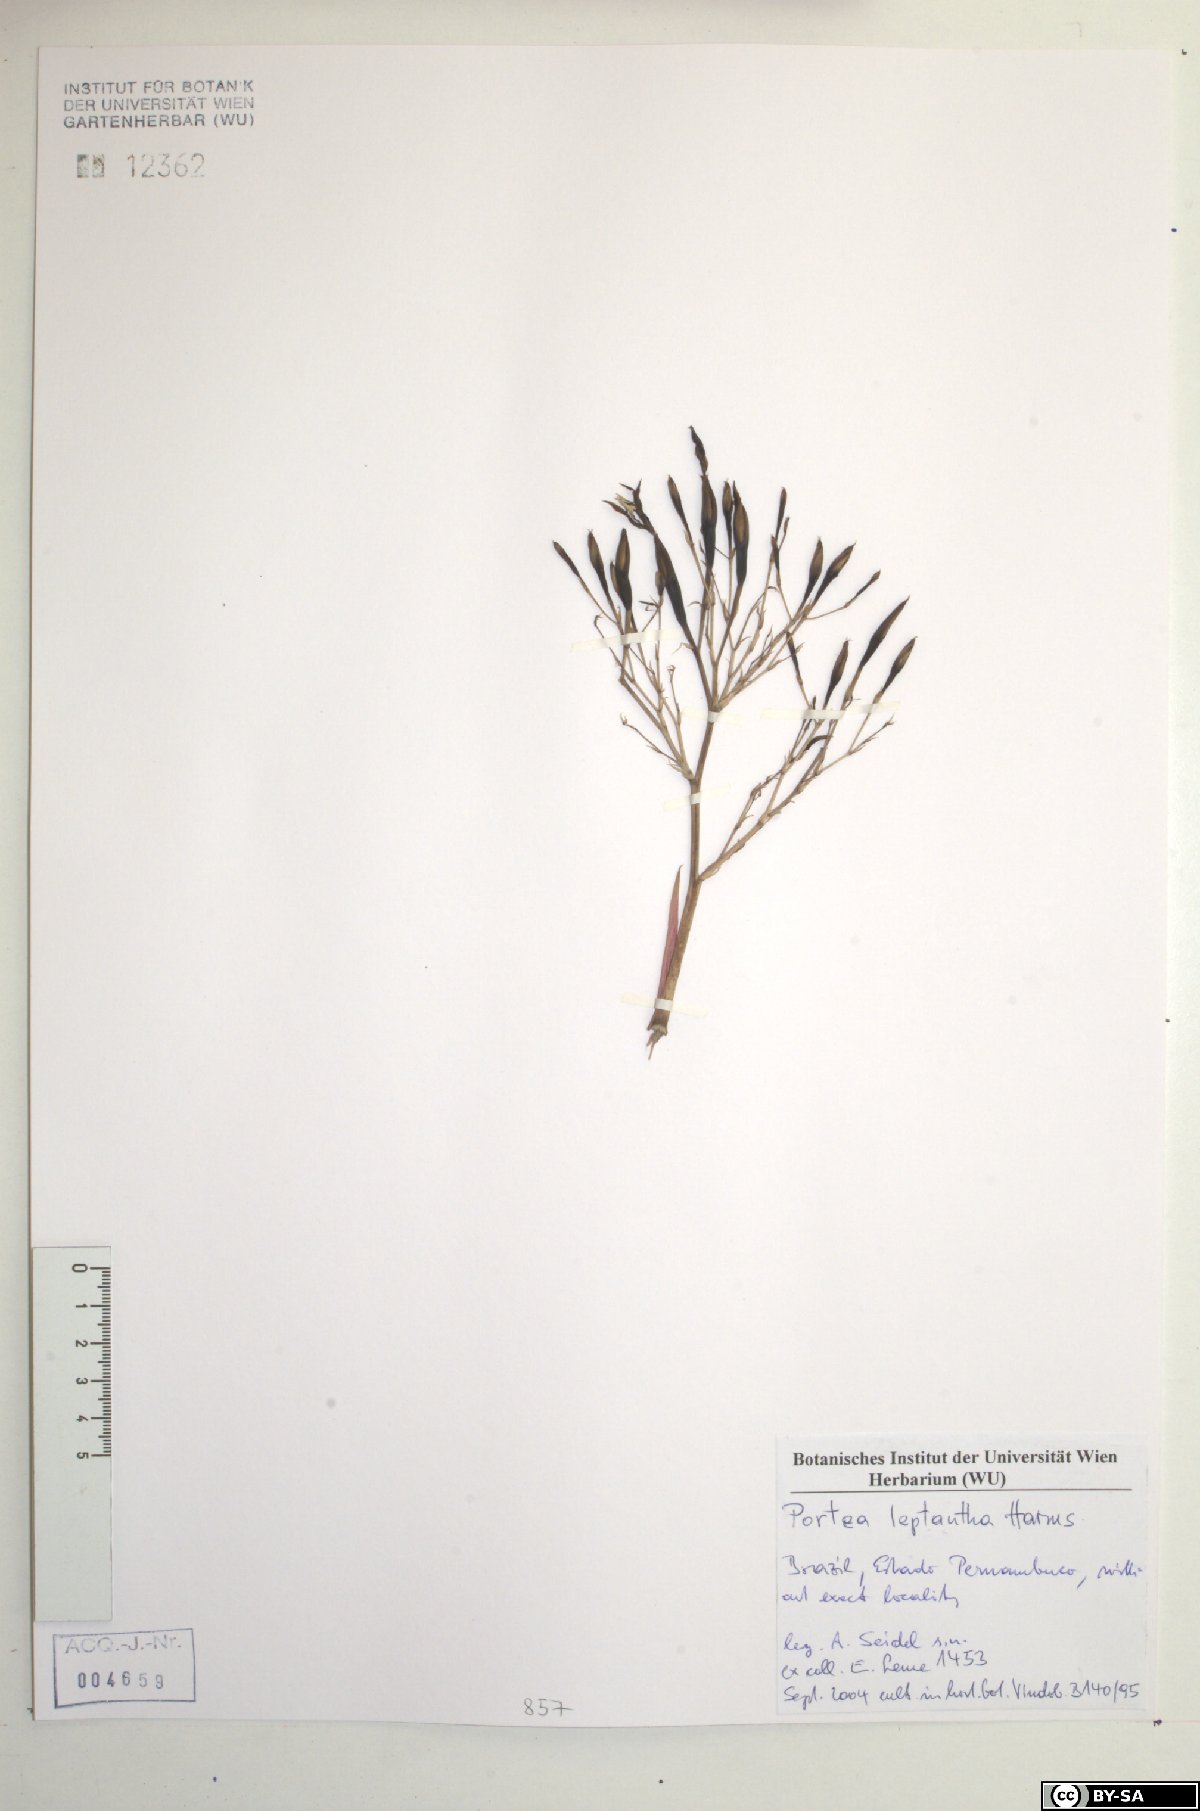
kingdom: Plantae
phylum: Tracheophyta
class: Liliopsida
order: Poales
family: Bromeliaceae
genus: Aechmea
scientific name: Aechmea leptantha
